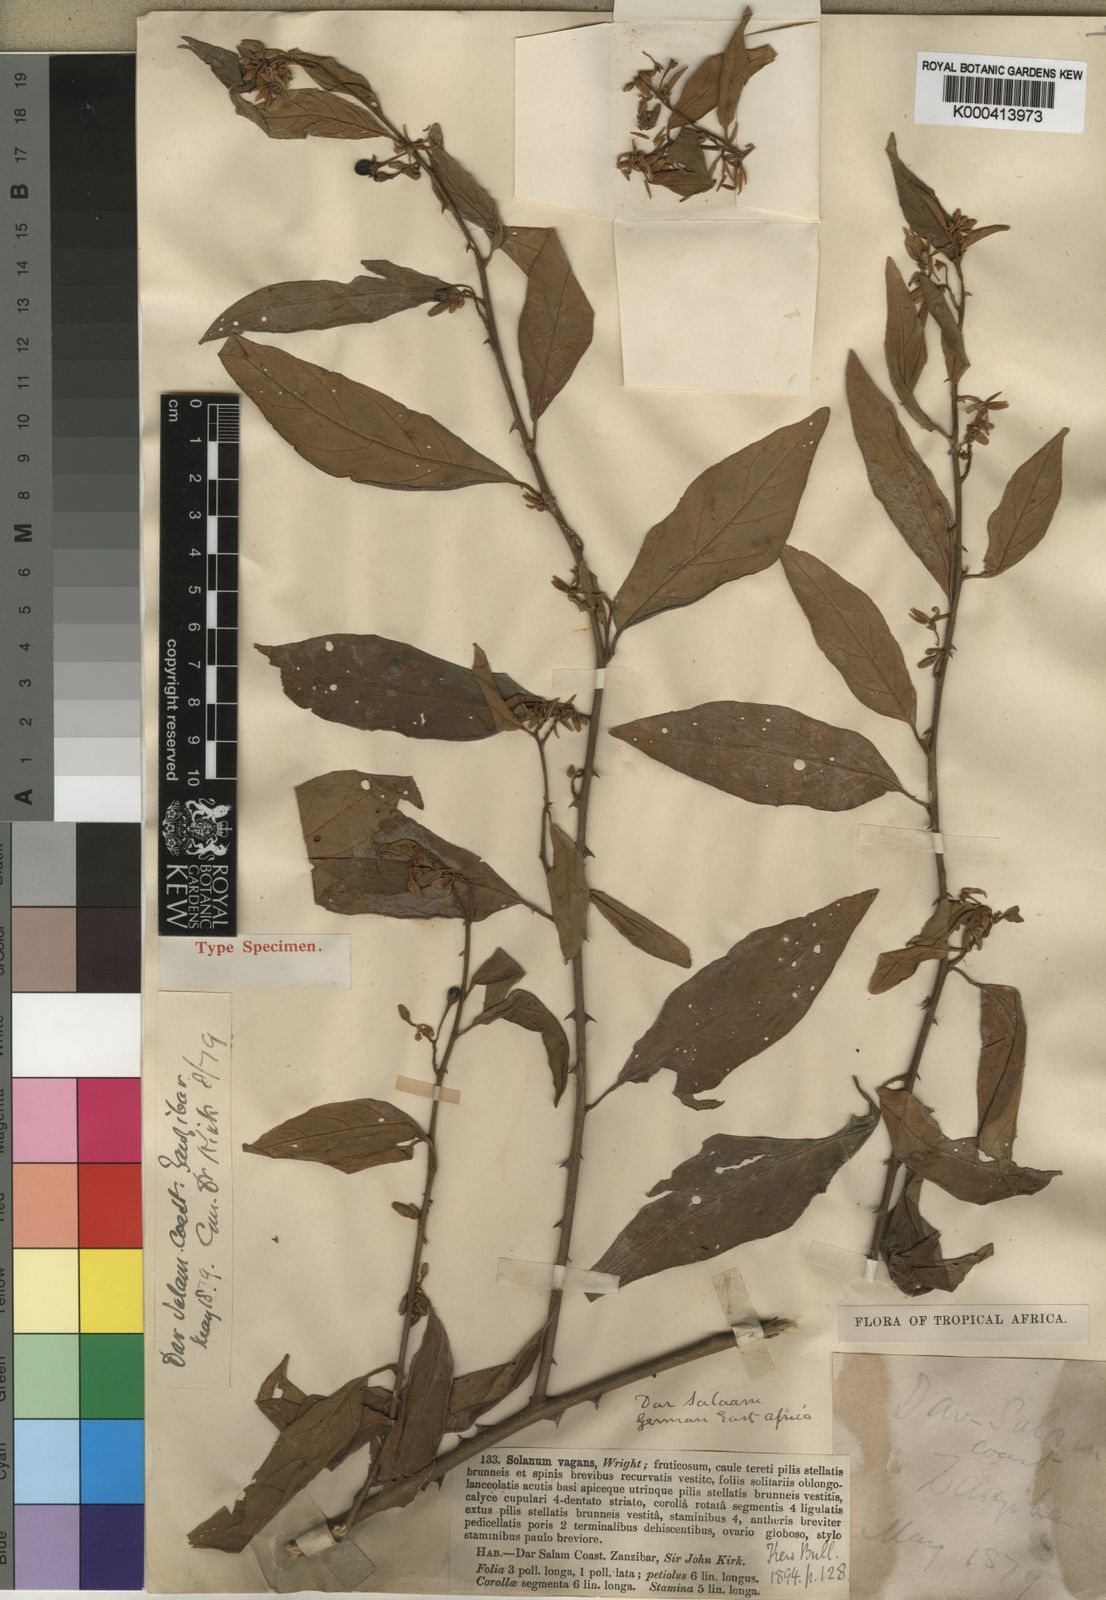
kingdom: Plantae
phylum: Tracheophyta
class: Magnoliopsida
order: Solanales
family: Solanaceae
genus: Solanum
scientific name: Solanum zanzibarense
